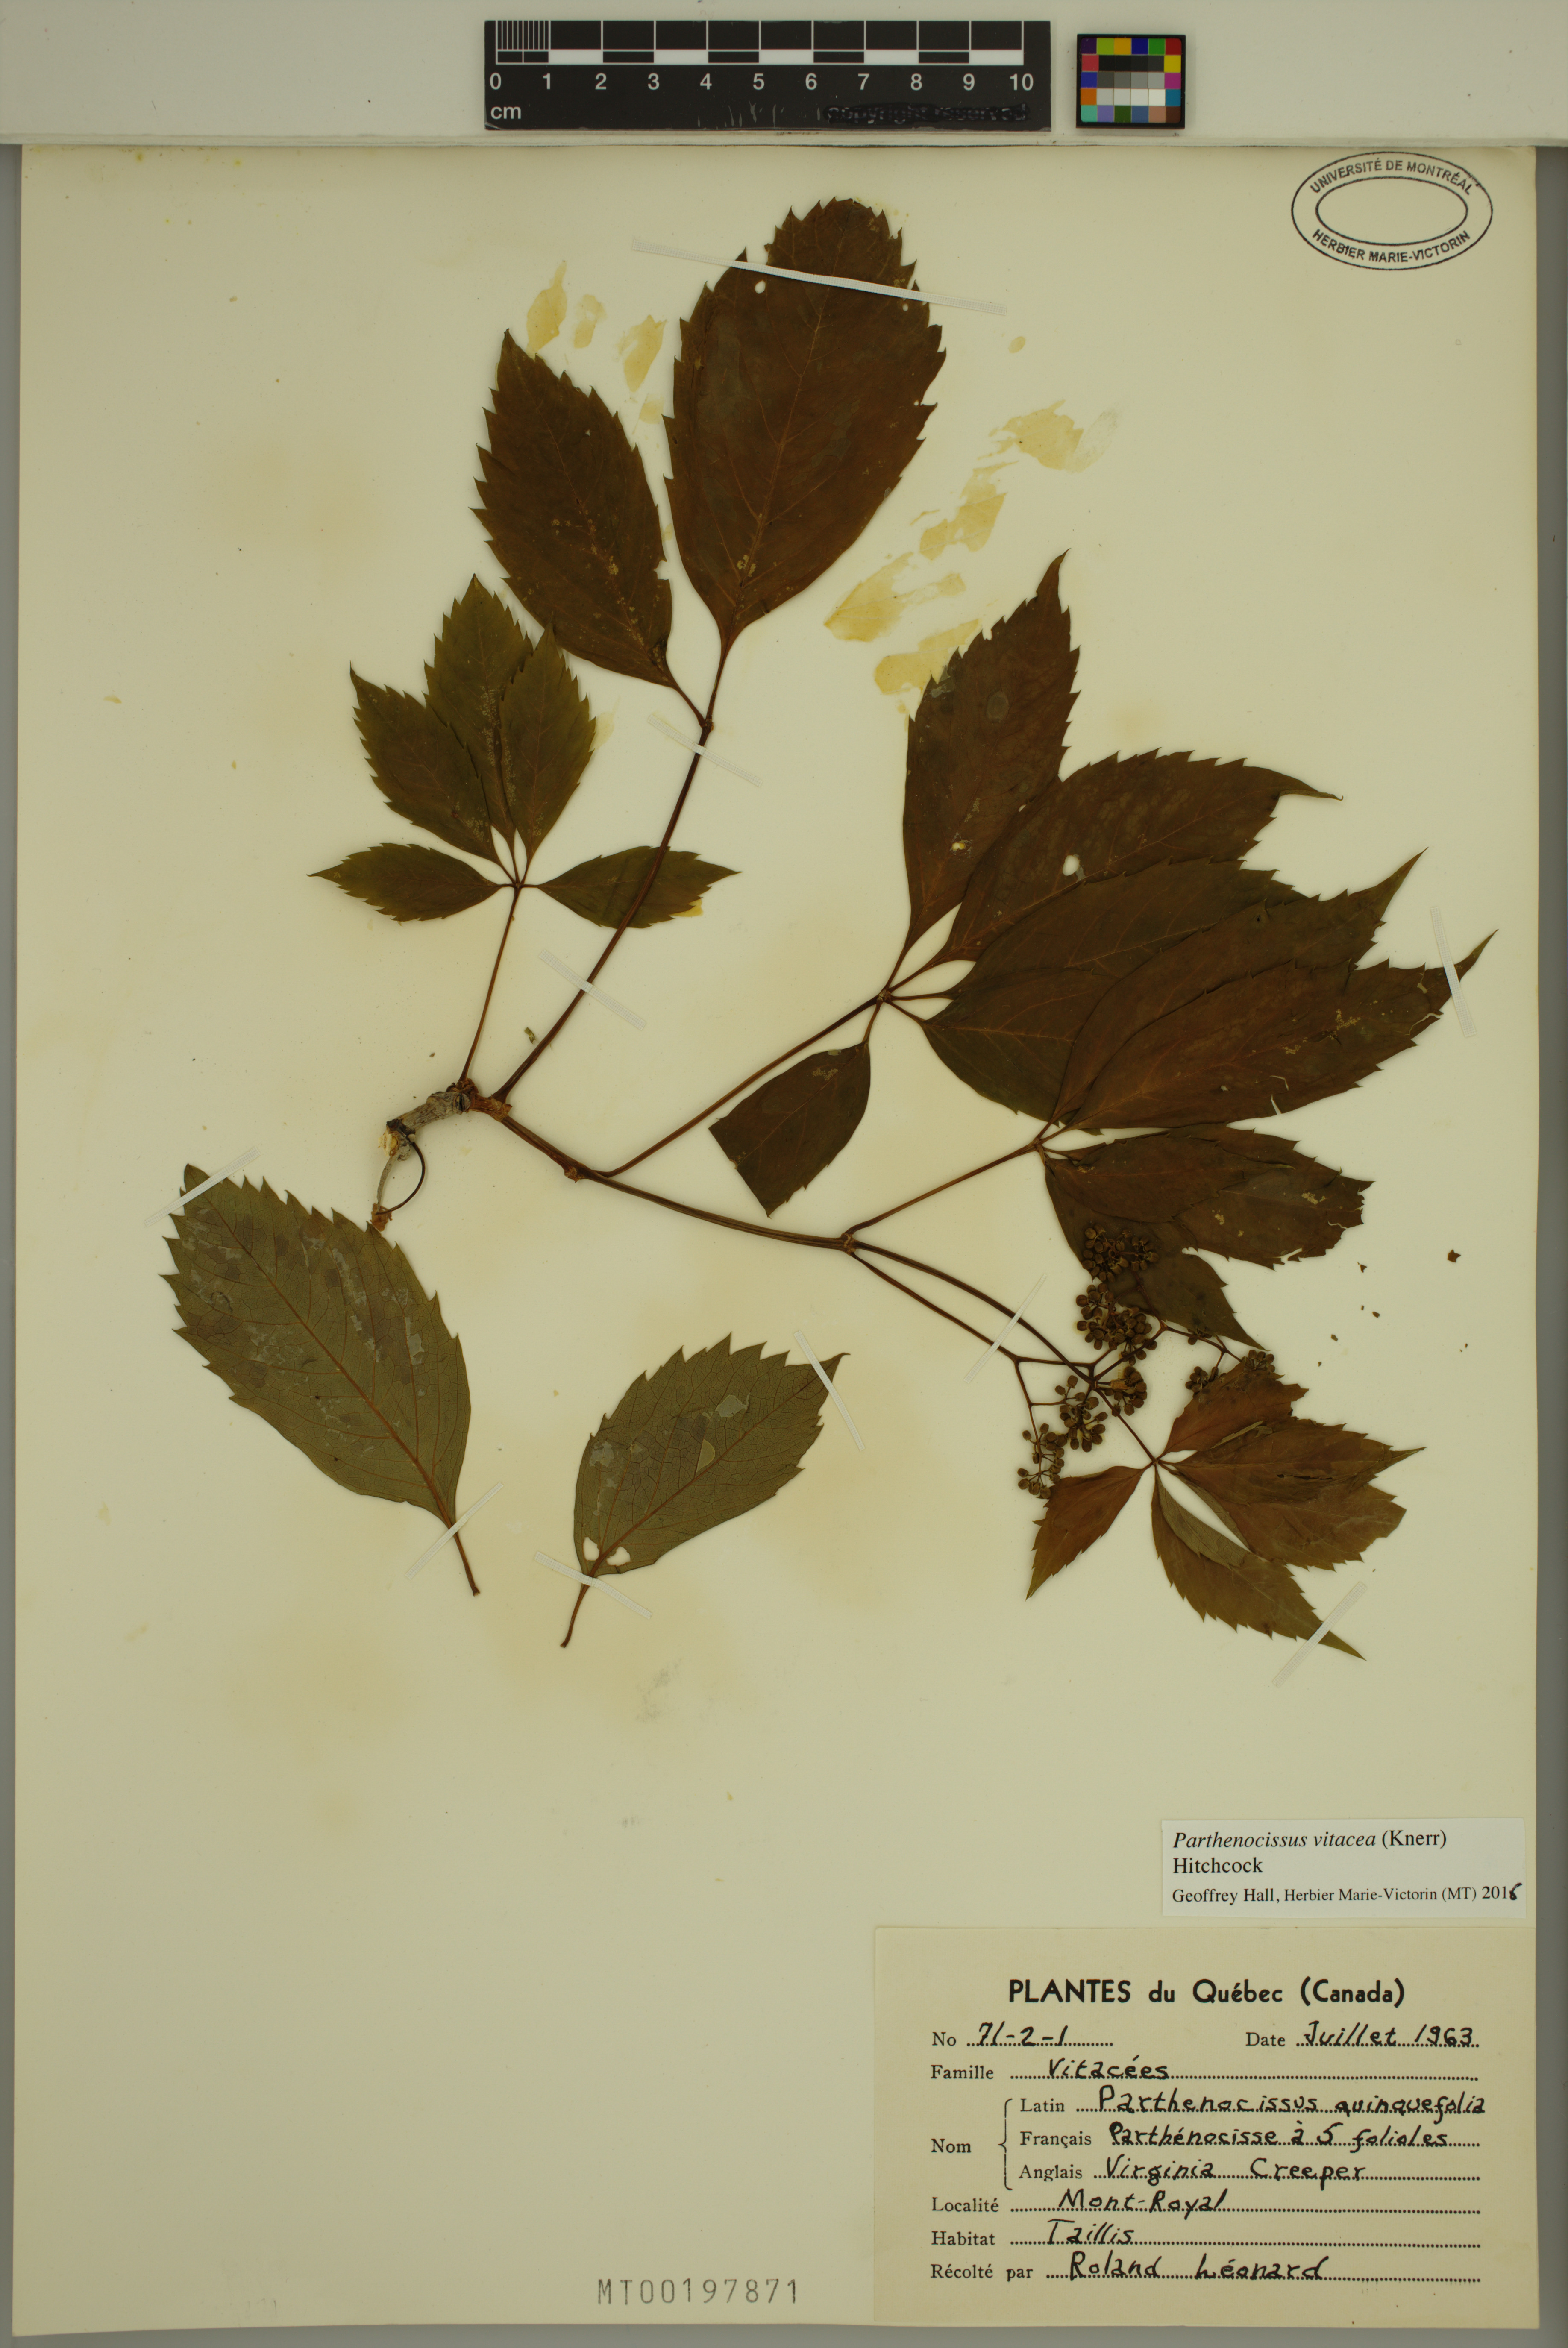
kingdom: Plantae
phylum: Tracheophyta
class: Magnoliopsida
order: Vitales
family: Vitaceae
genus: Parthenocissus
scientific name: Parthenocissus inserta
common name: False virginia-creeper
